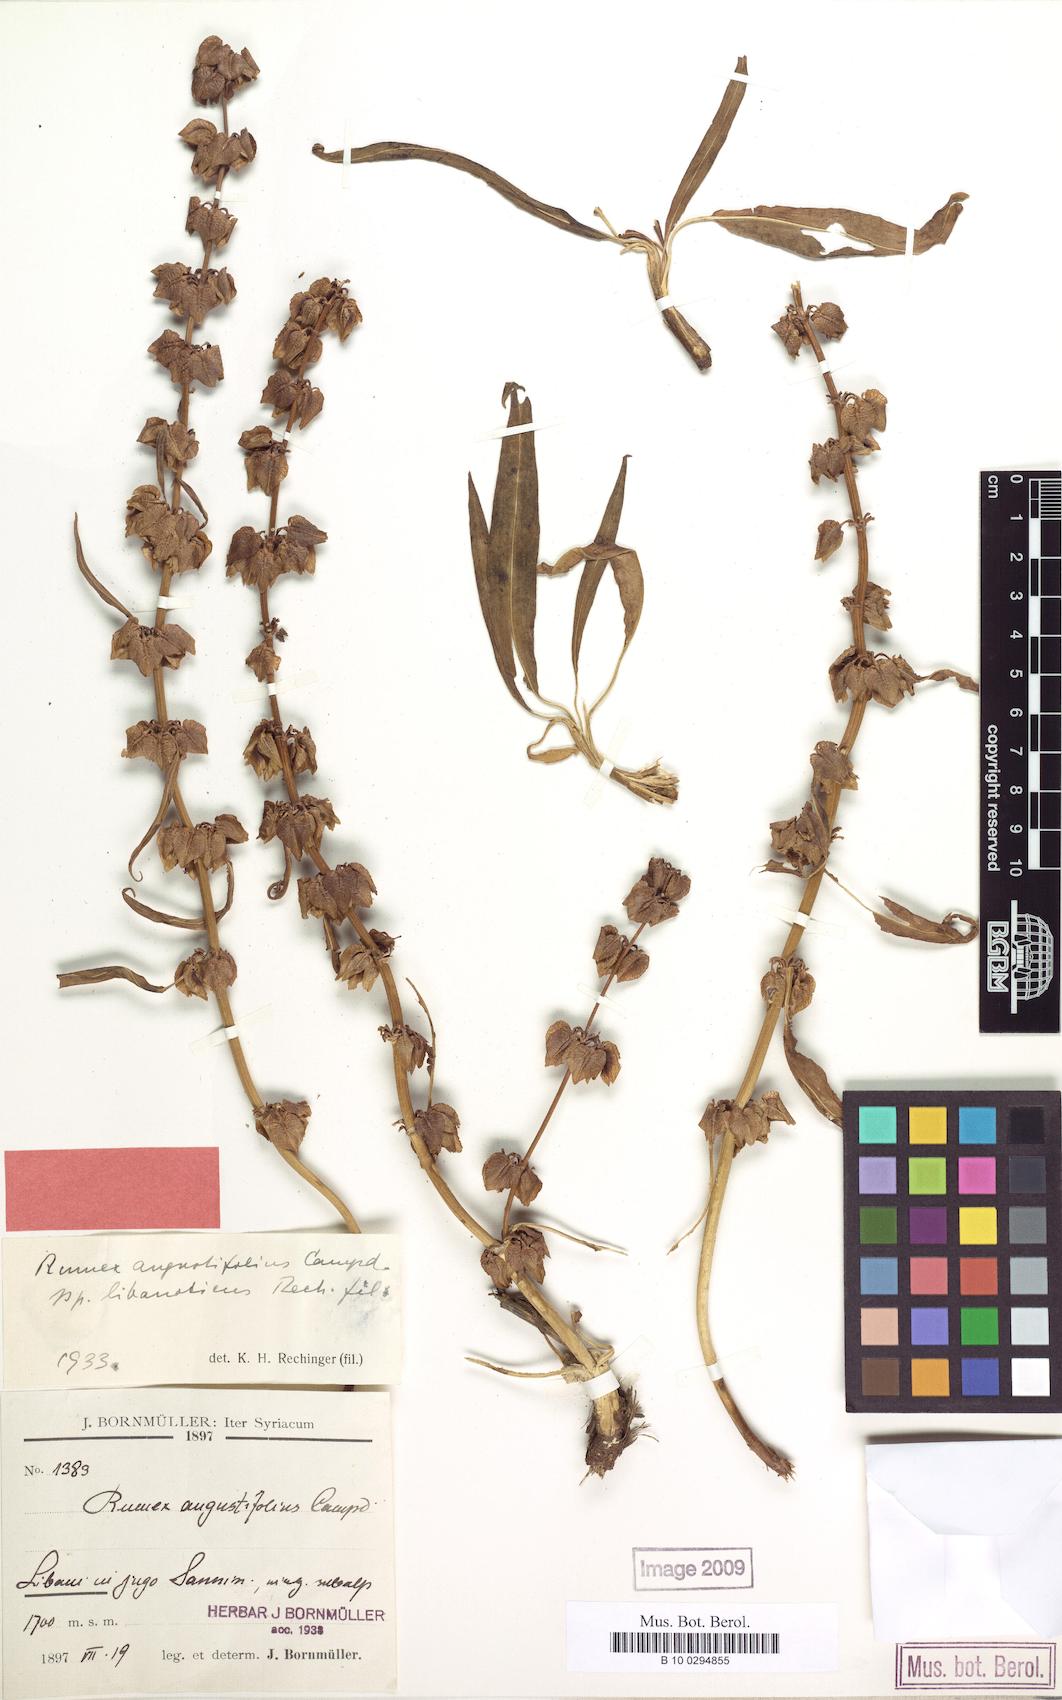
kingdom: Plantae
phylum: Tracheophyta
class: Magnoliopsida
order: Caryophyllales
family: Polygonaceae
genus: Rumex
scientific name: Rumex angustifolius
